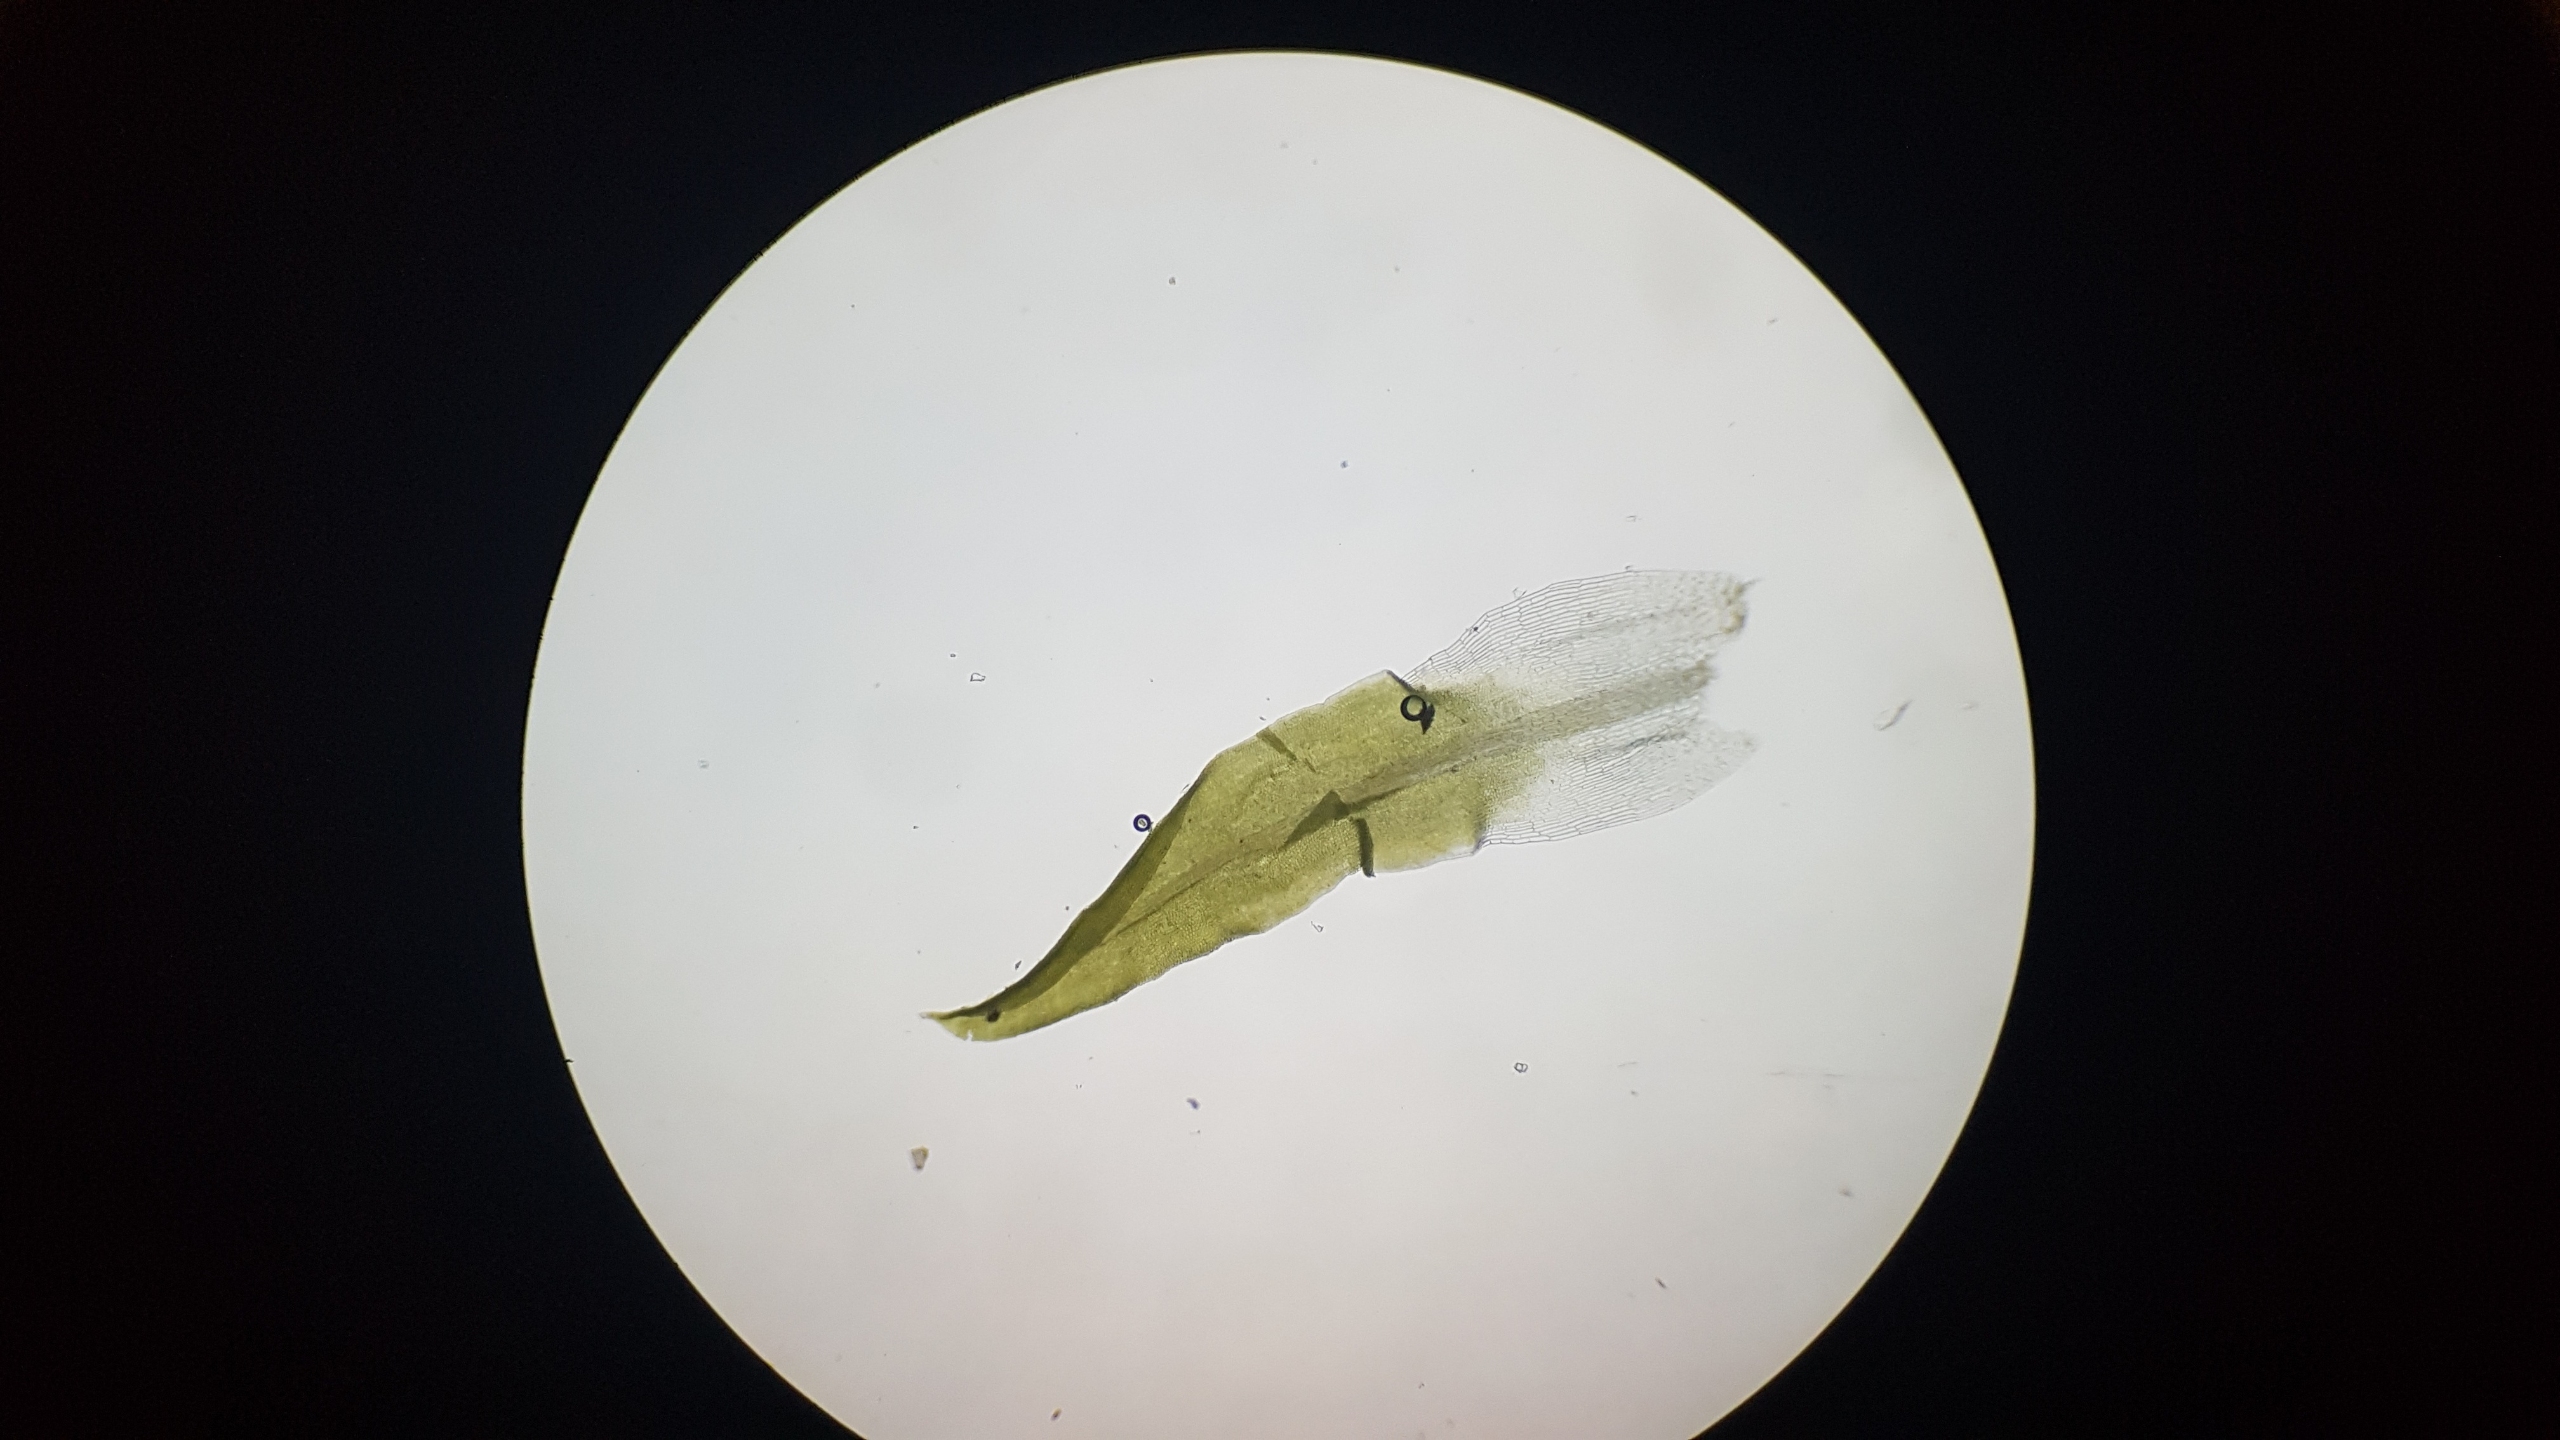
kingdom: Plantae
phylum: Bryophyta
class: Bryopsida
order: Pottiales
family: Pottiaceae
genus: Tortella
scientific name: Tortella flavovirens
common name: Sortgrøn snoblad
